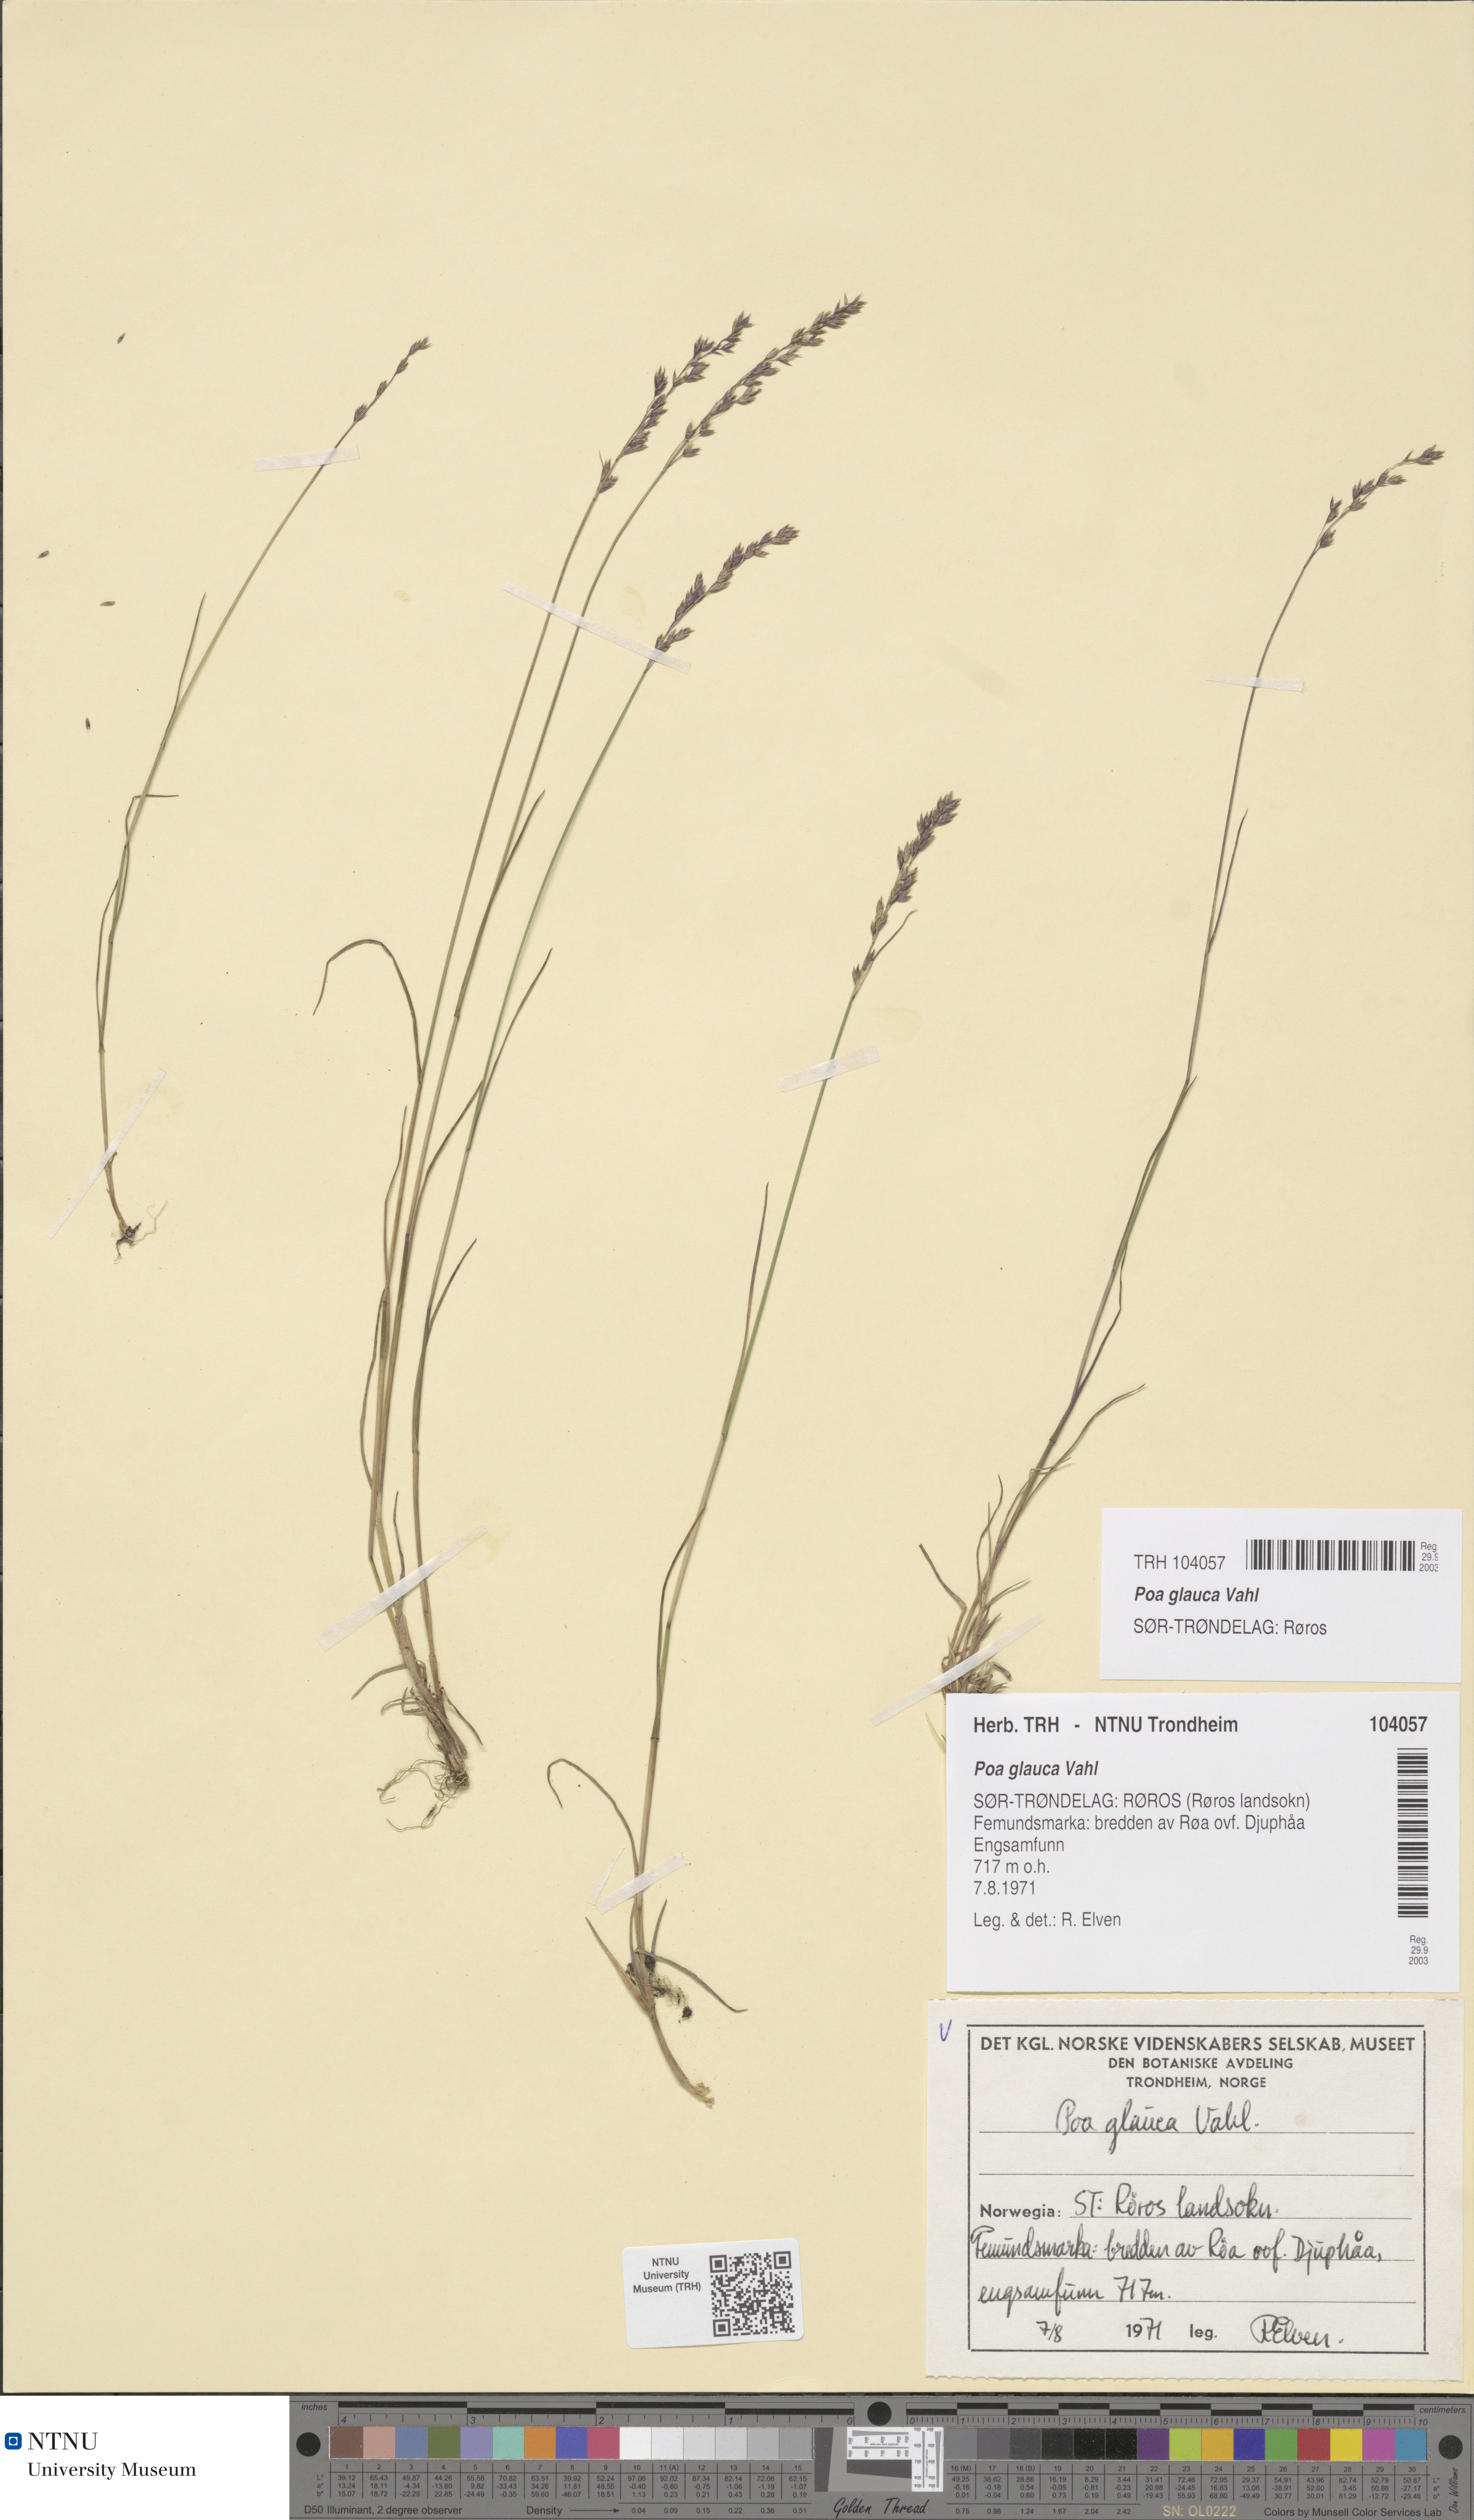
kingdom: Plantae
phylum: Tracheophyta
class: Liliopsida
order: Poales
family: Poaceae
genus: Poa
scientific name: Poa glauca
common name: Glaucous bluegrass
